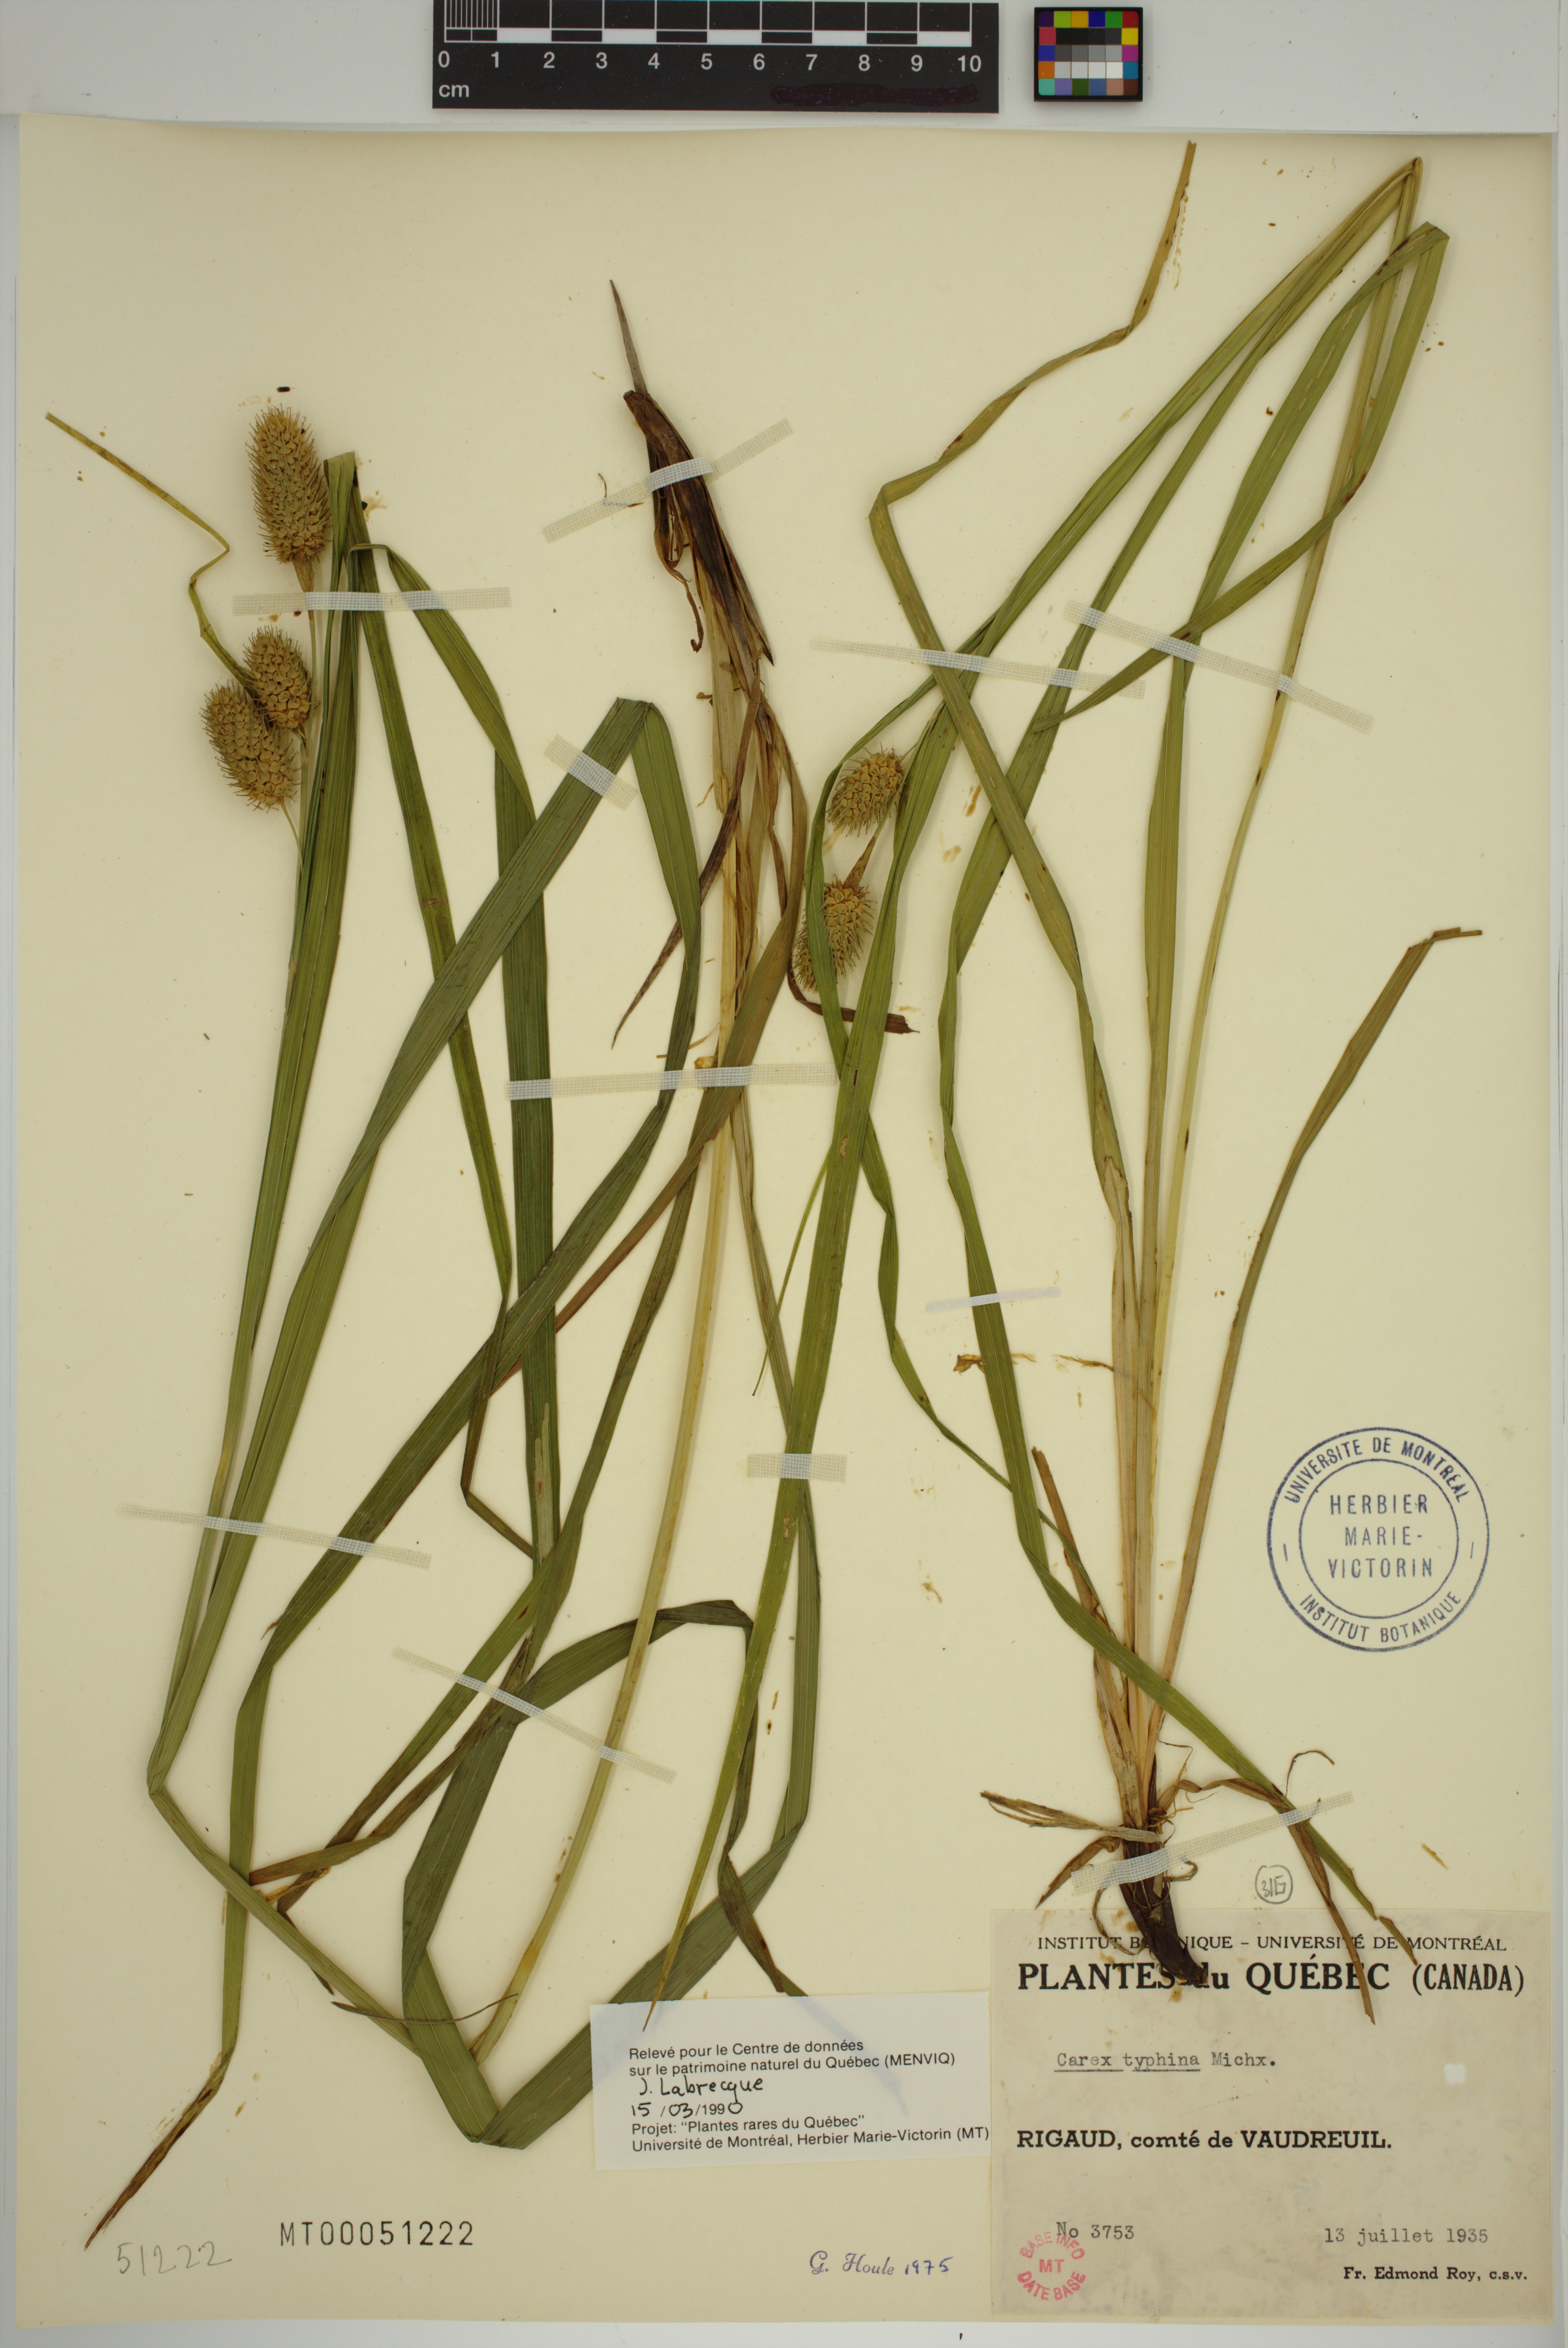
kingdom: Plantae
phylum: Tracheophyta
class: Liliopsida
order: Poales
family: Cyperaceae
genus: Carex
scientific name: Carex typhina
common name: Cattail sedge
